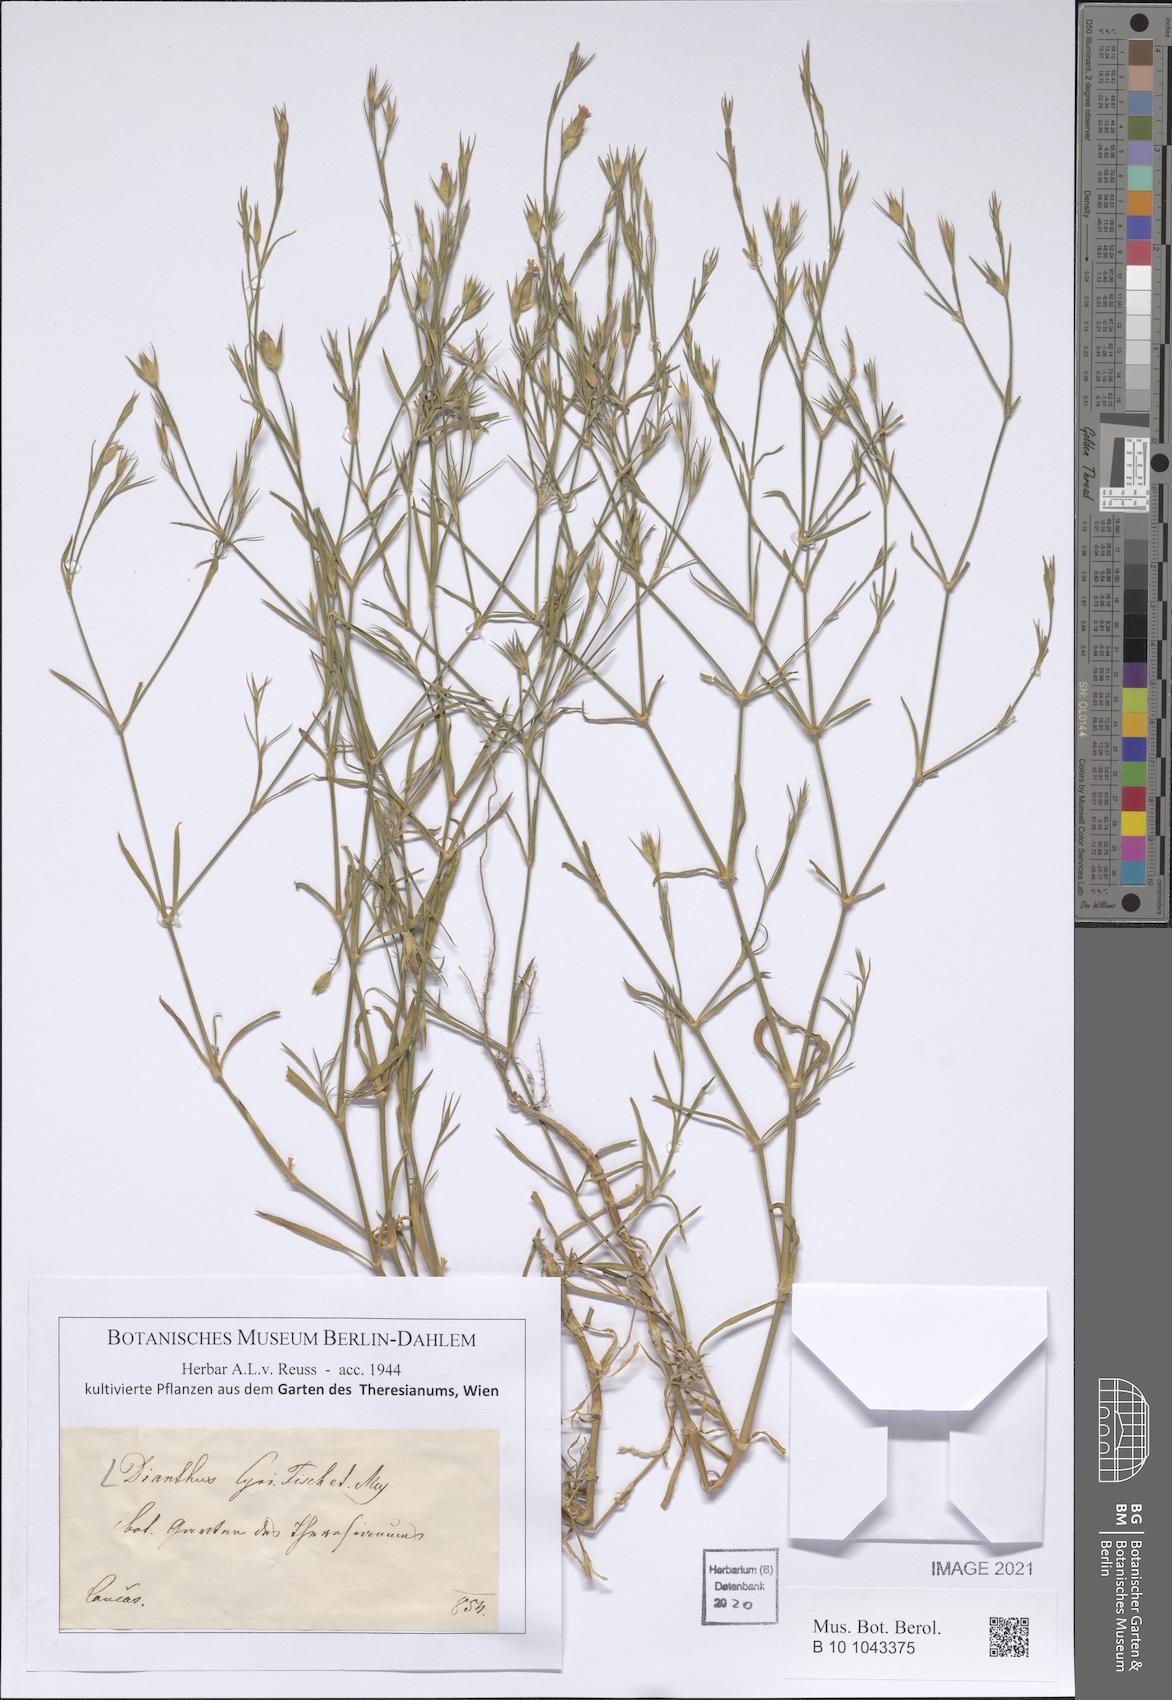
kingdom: Plantae
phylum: Tracheophyta
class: Magnoliopsida
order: Caryophyllales
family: Caryophyllaceae
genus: Dianthus
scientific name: Dianthus cyri
